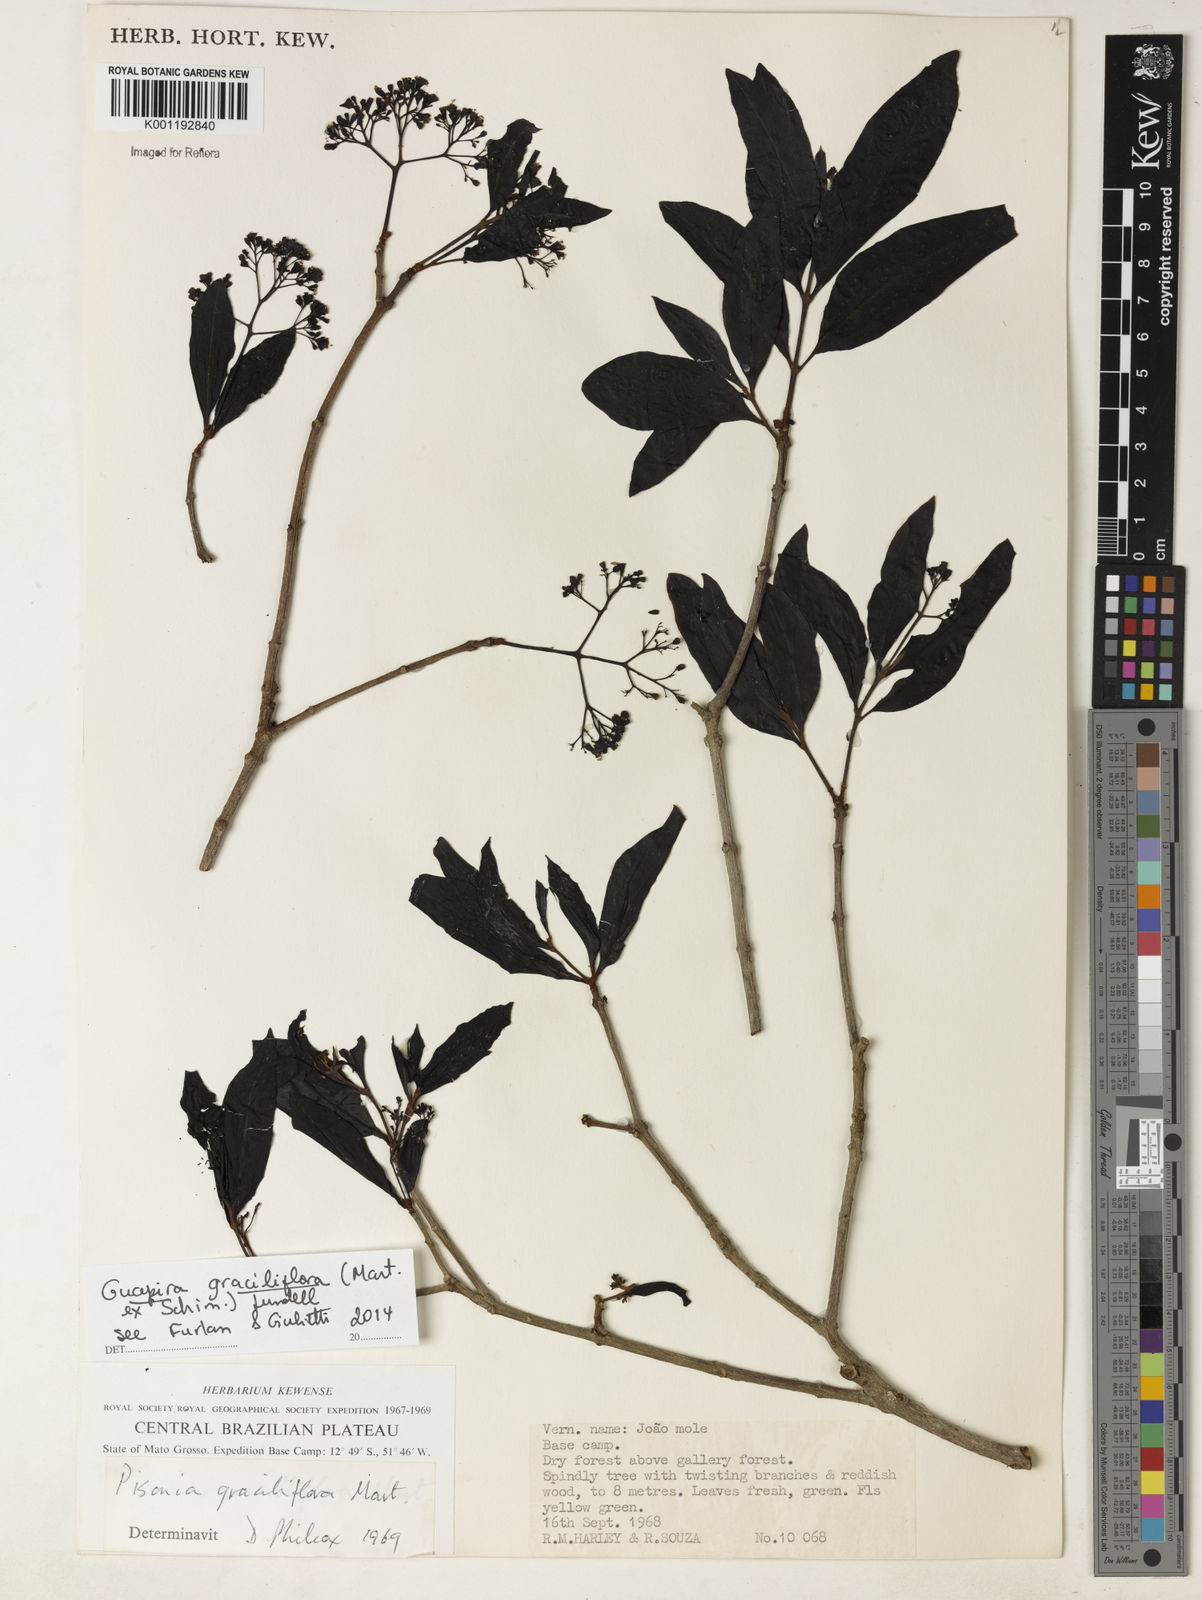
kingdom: Plantae
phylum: Tracheophyta
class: Magnoliopsida
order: Caryophyllales
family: Nyctaginaceae
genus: Guapira
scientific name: Guapira graciliflora
